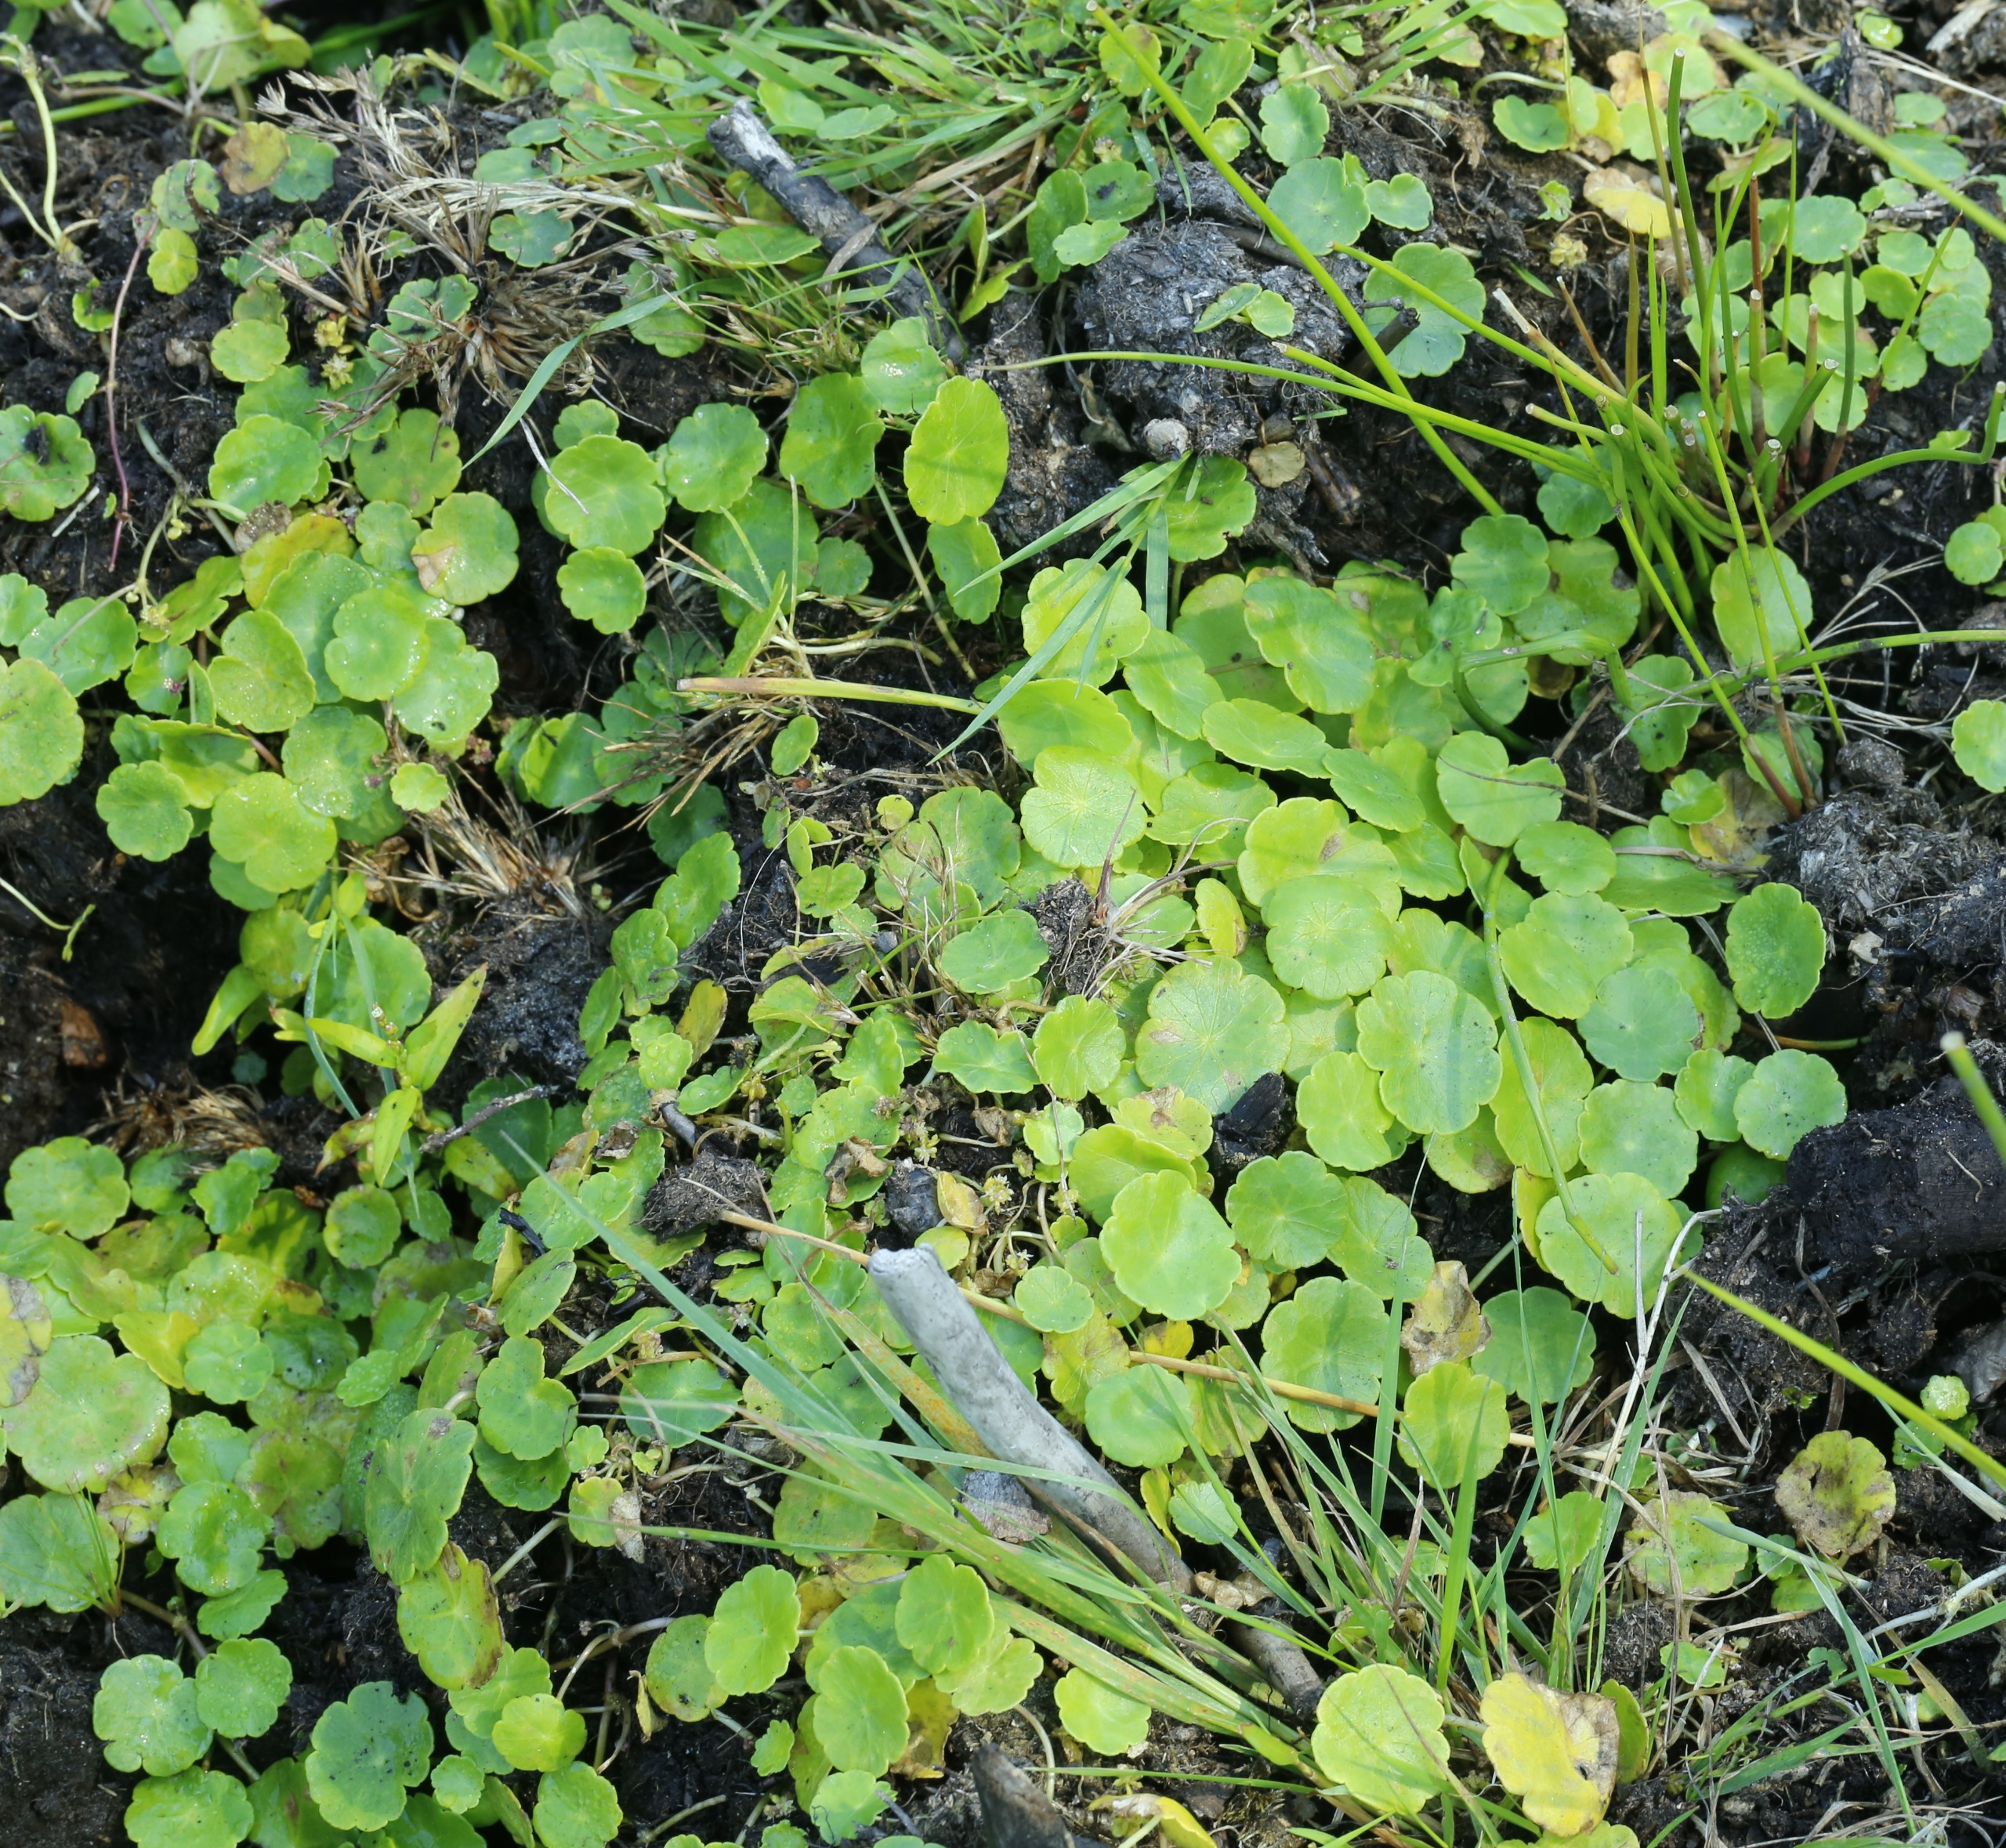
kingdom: Plantae
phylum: Tracheophyta
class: Magnoliopsida
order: Apiales
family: Araliaceae
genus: Hydrocotyle
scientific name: Hydrocotyle vulgaris
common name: Vandnavle
